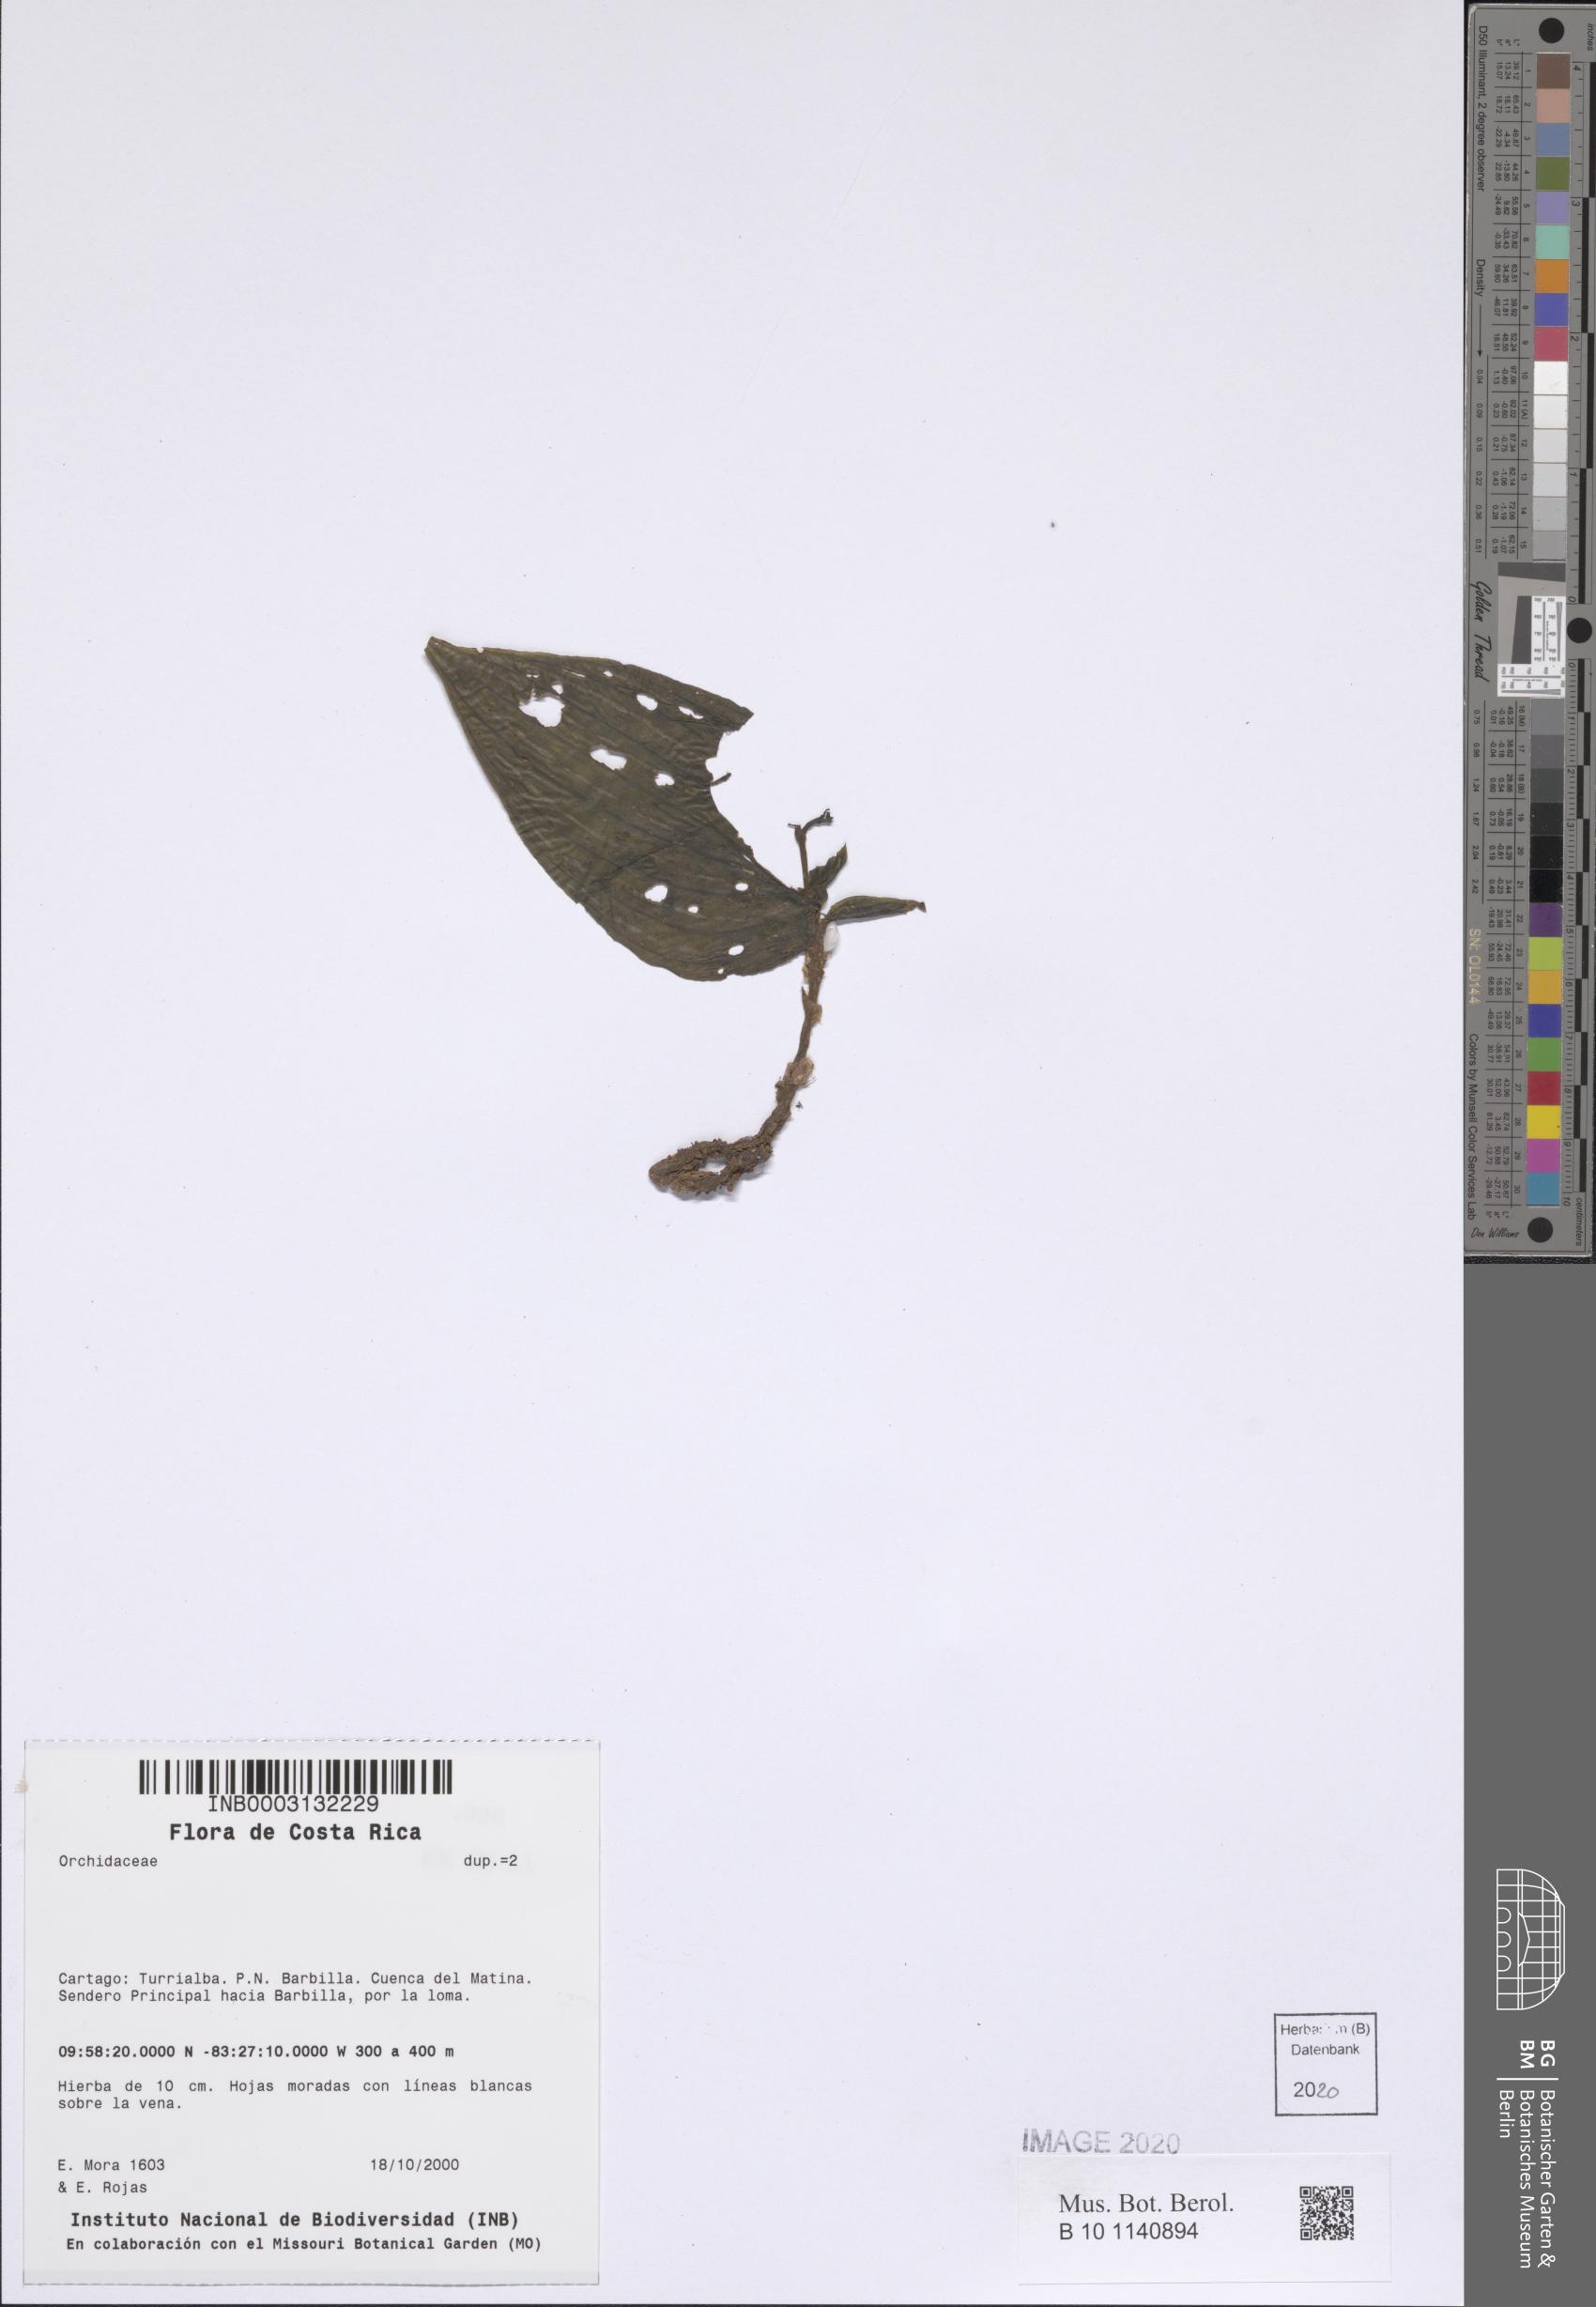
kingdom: Plantae
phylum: Tracheophyta
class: Liliopsida
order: Asparagales
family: Orchidaceae
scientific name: Orchidaceae
